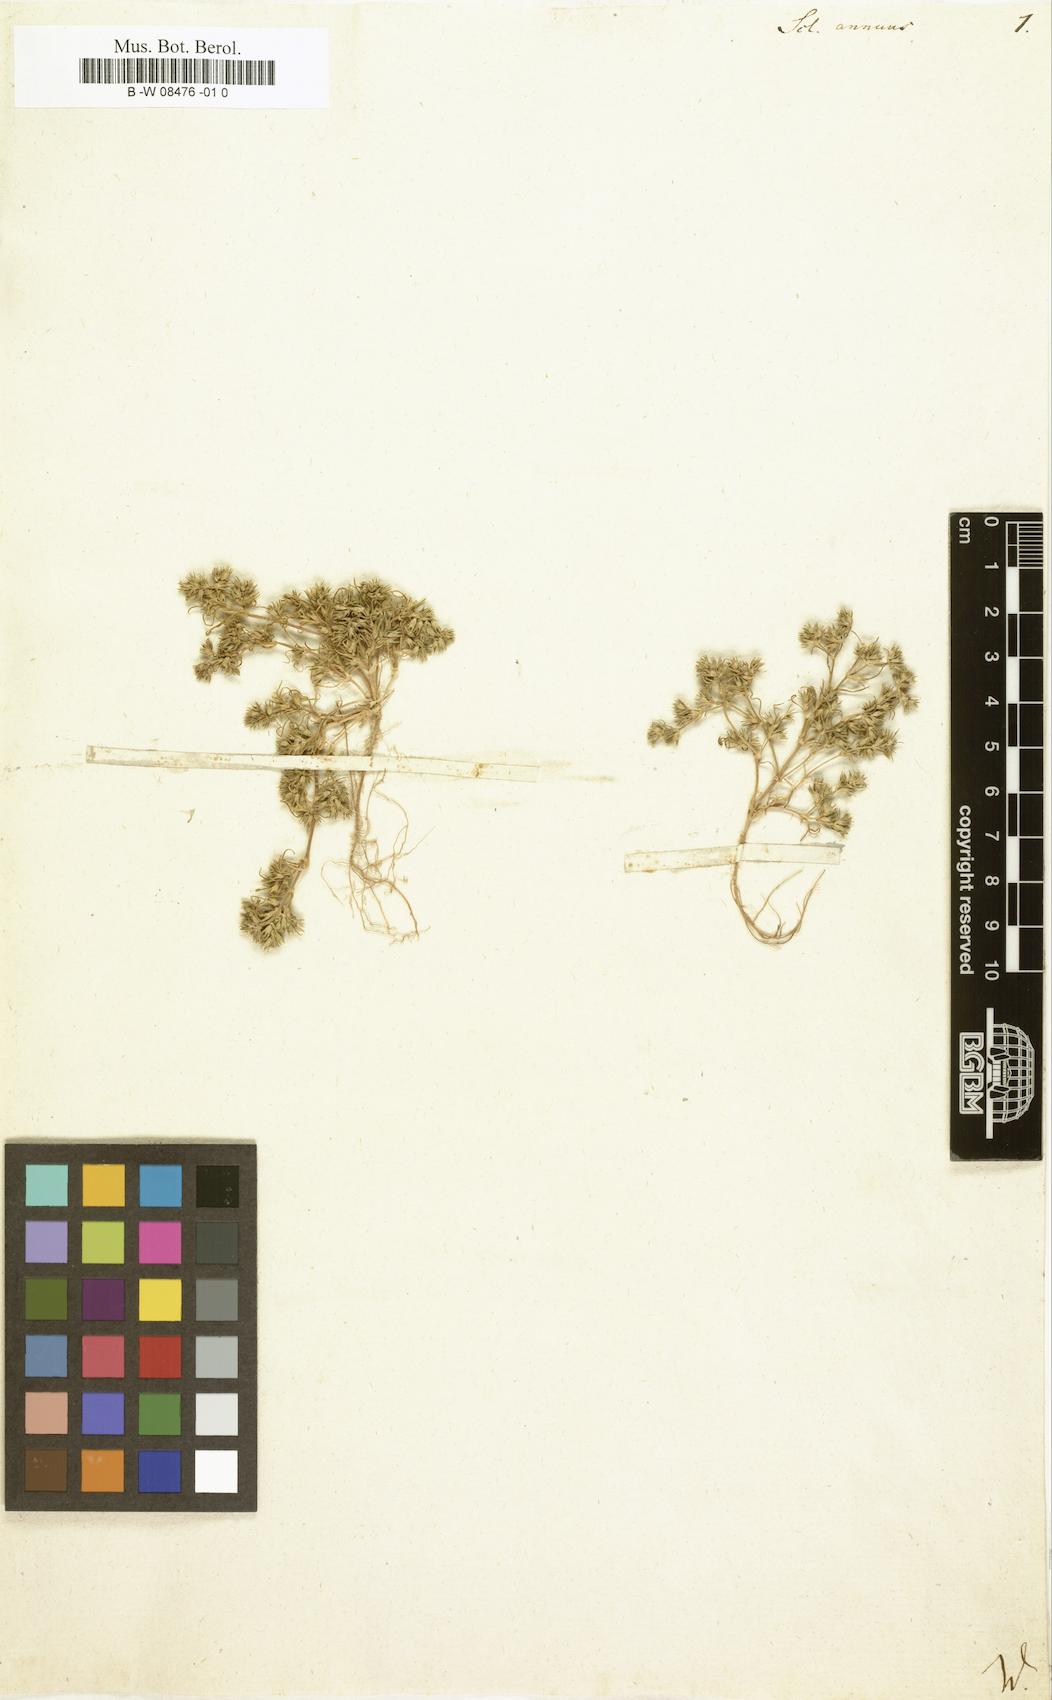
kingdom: Plantae
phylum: Tracheophyta
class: Magnoliopsida
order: Caryophyllales
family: Caryophyllaceae
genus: Scleranthus
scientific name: Scleranthus annuus
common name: Annual knawel
